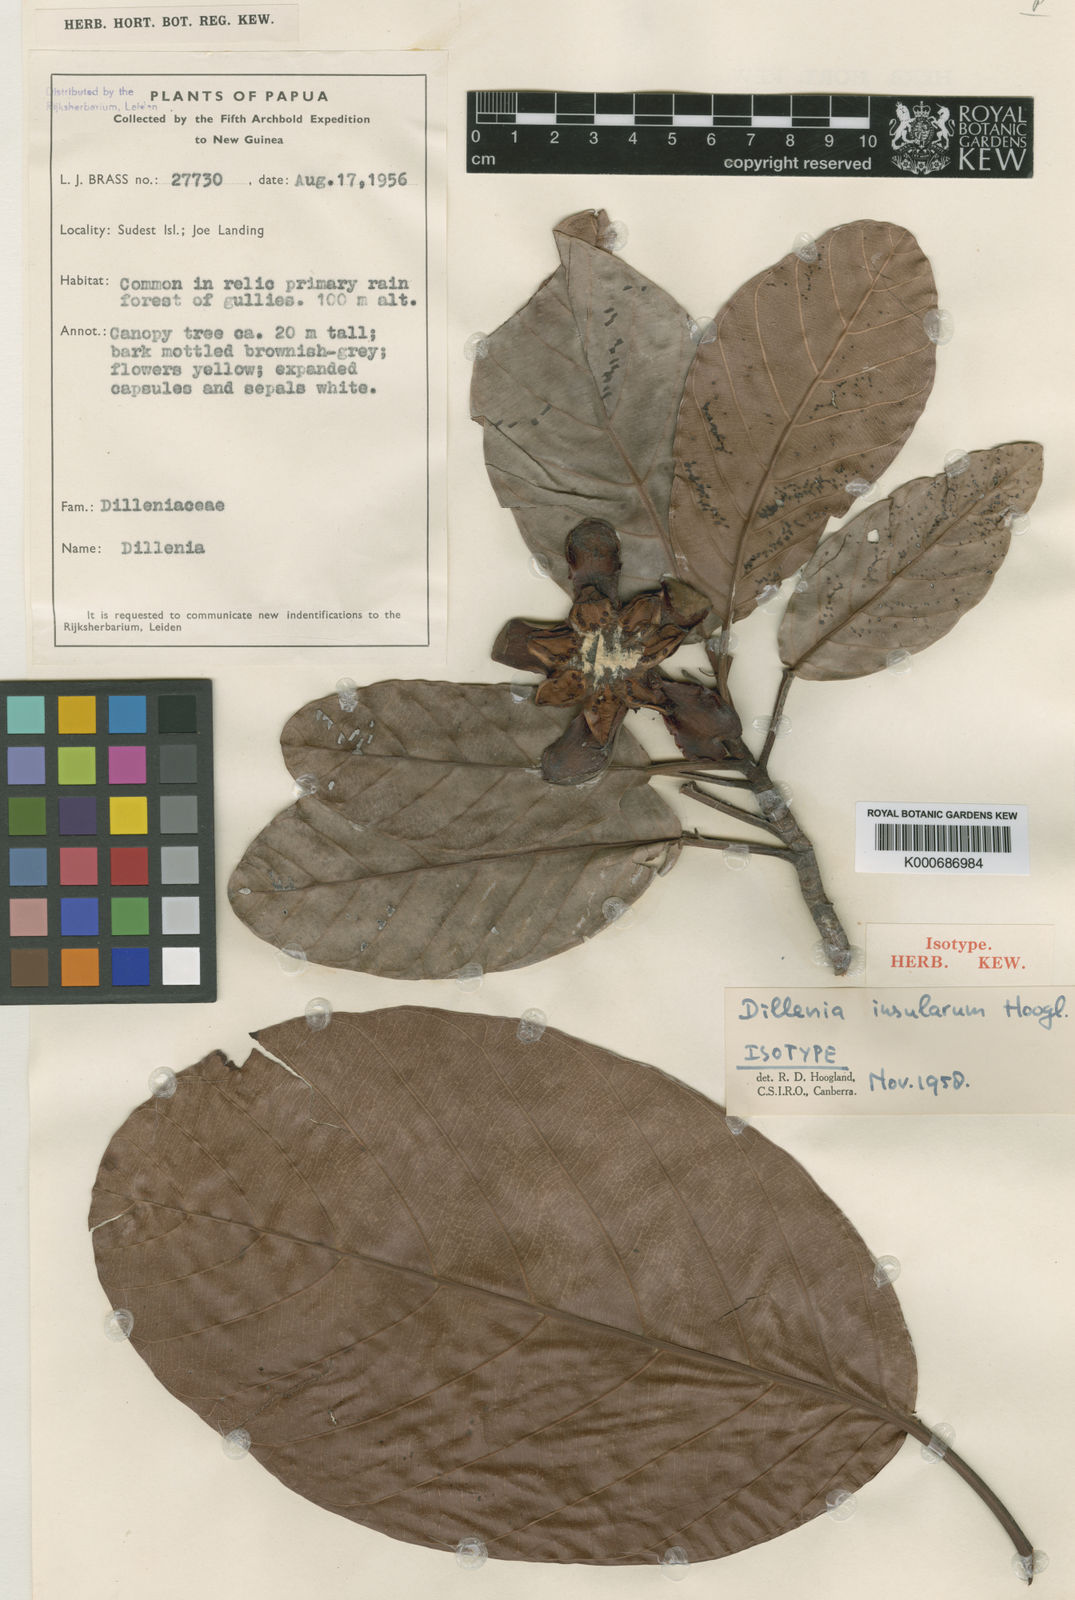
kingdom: Plantae
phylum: Tracheophyta
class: Magnoliopsida
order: Dilleniales
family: Dilleniaceae
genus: Dillenia
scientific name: Dillenia insularum
